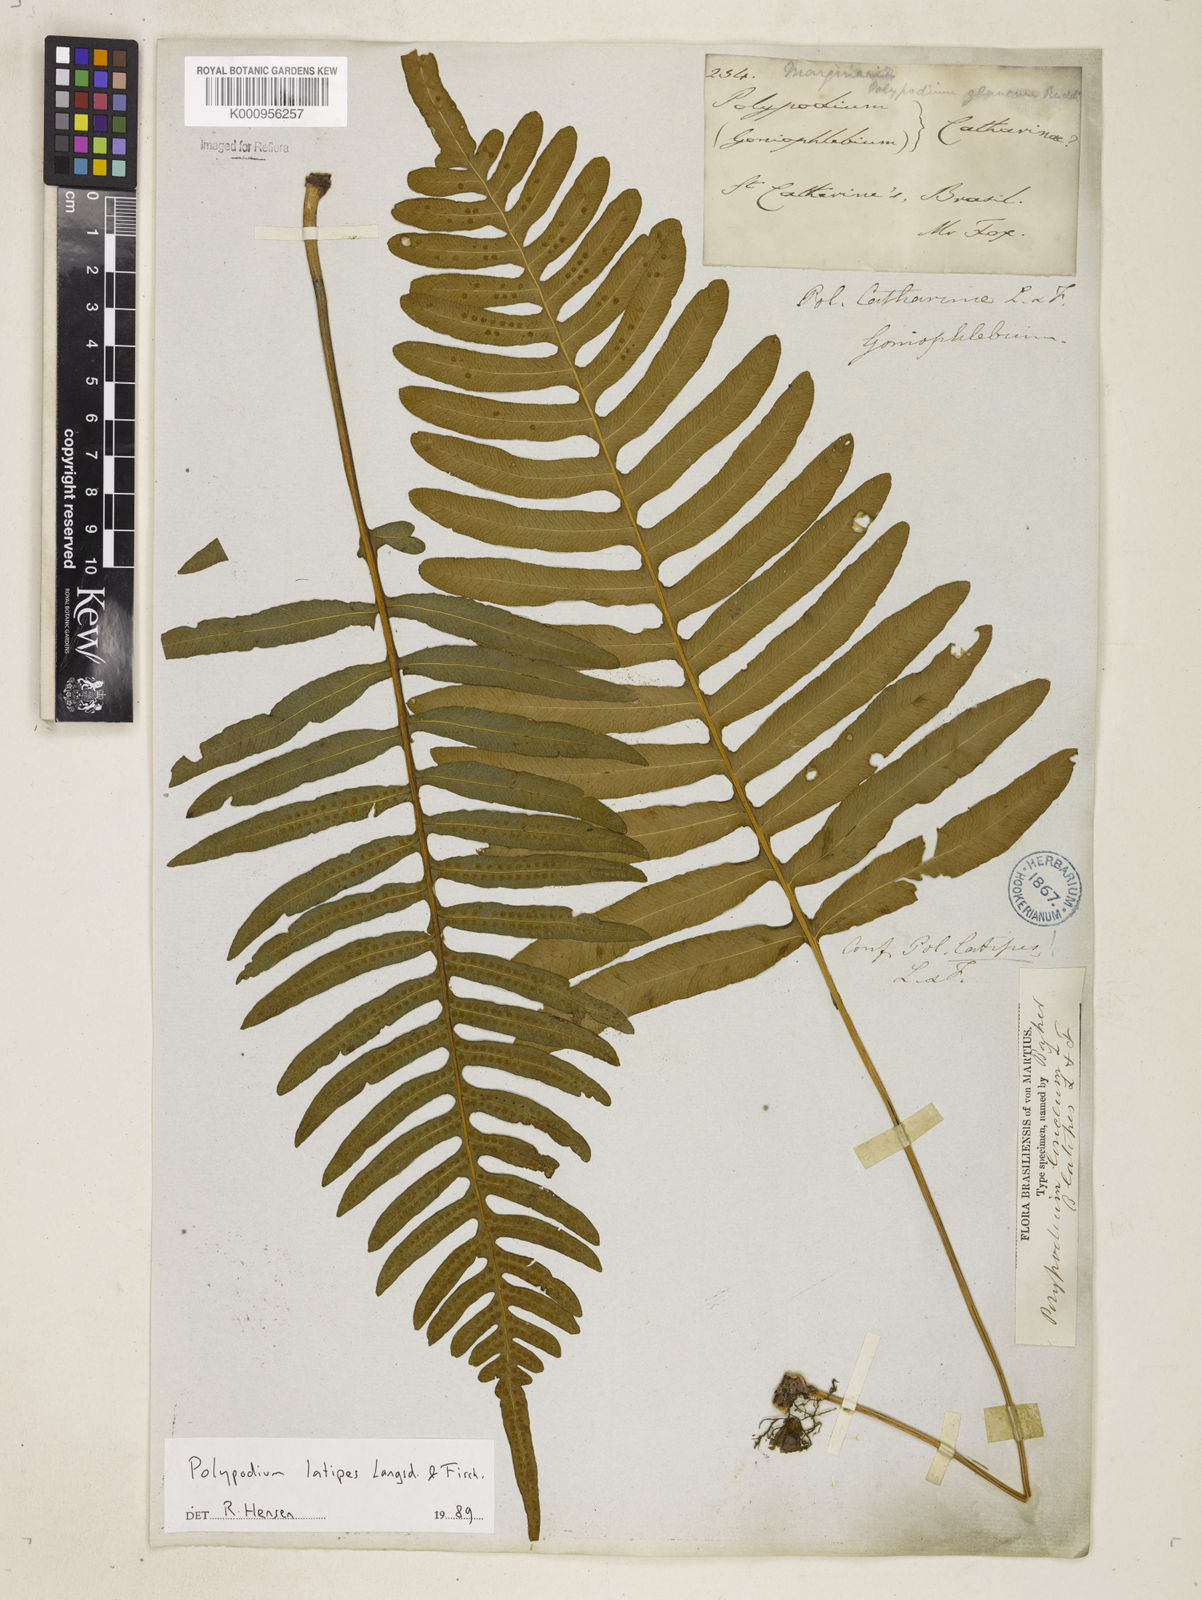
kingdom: Plantae
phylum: Tracheophyta
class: Polypodiopsida
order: Polypodiales
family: Polypodiaceae
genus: Serpocaulon
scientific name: Serpocaulon loriceum
